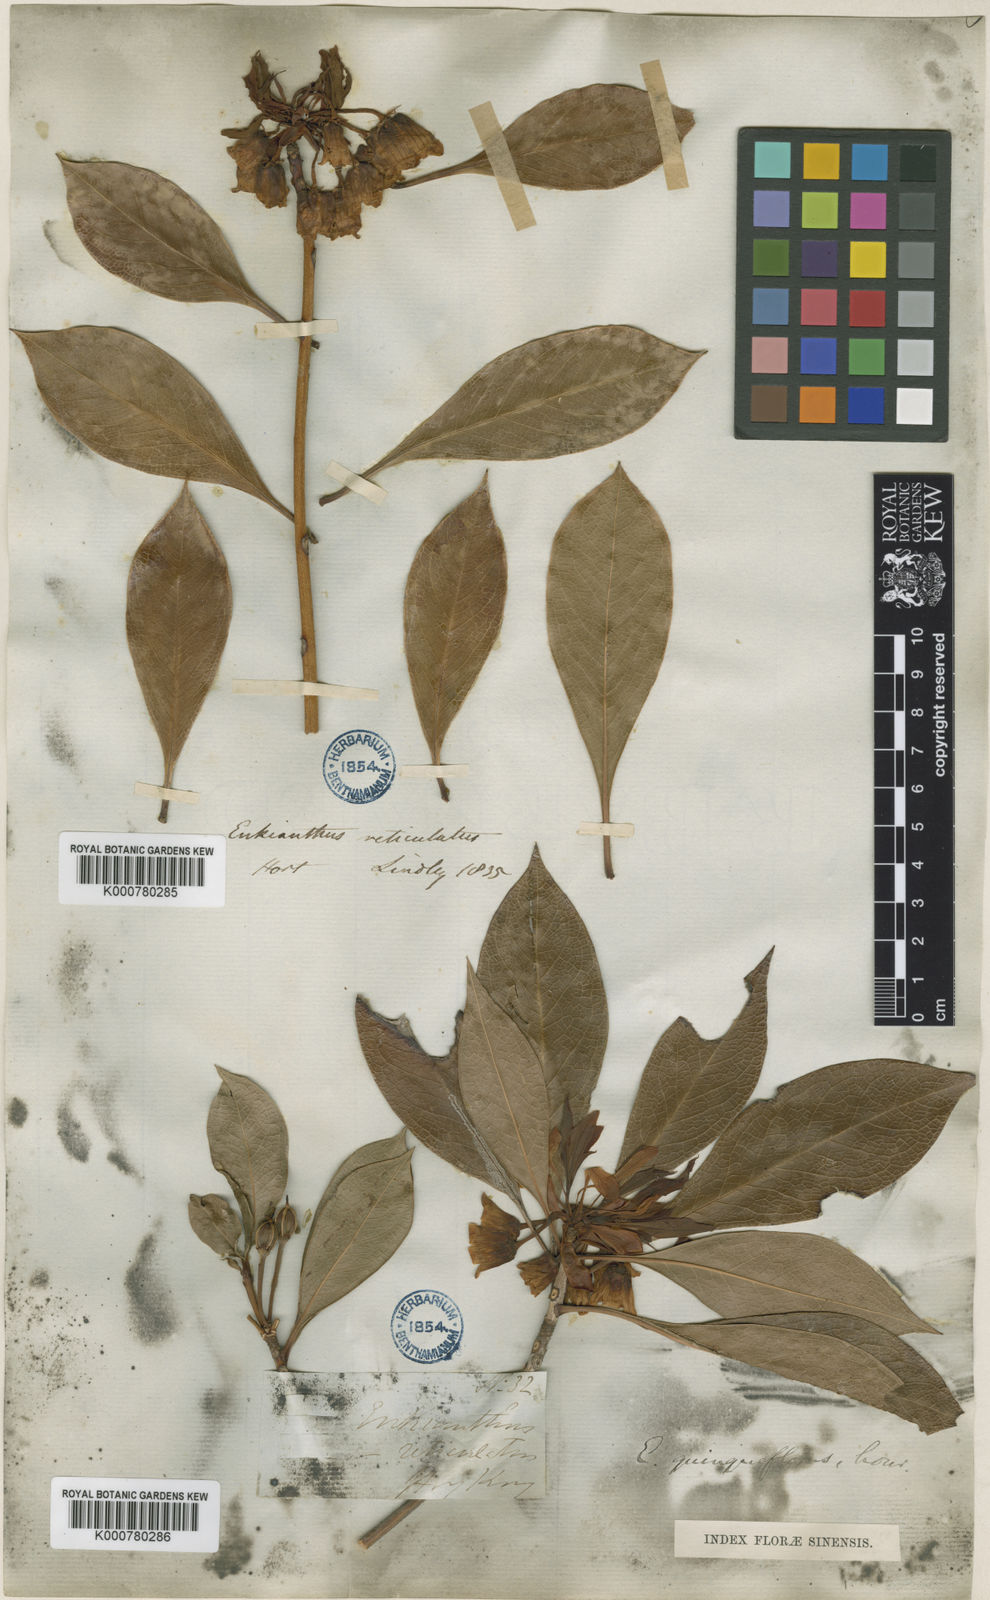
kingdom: Plantae
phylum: Tracheophyta
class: Magnoliopsida
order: Ericales
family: Ericaceae
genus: Enkianthus
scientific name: Enkianthus quinqueflorus
